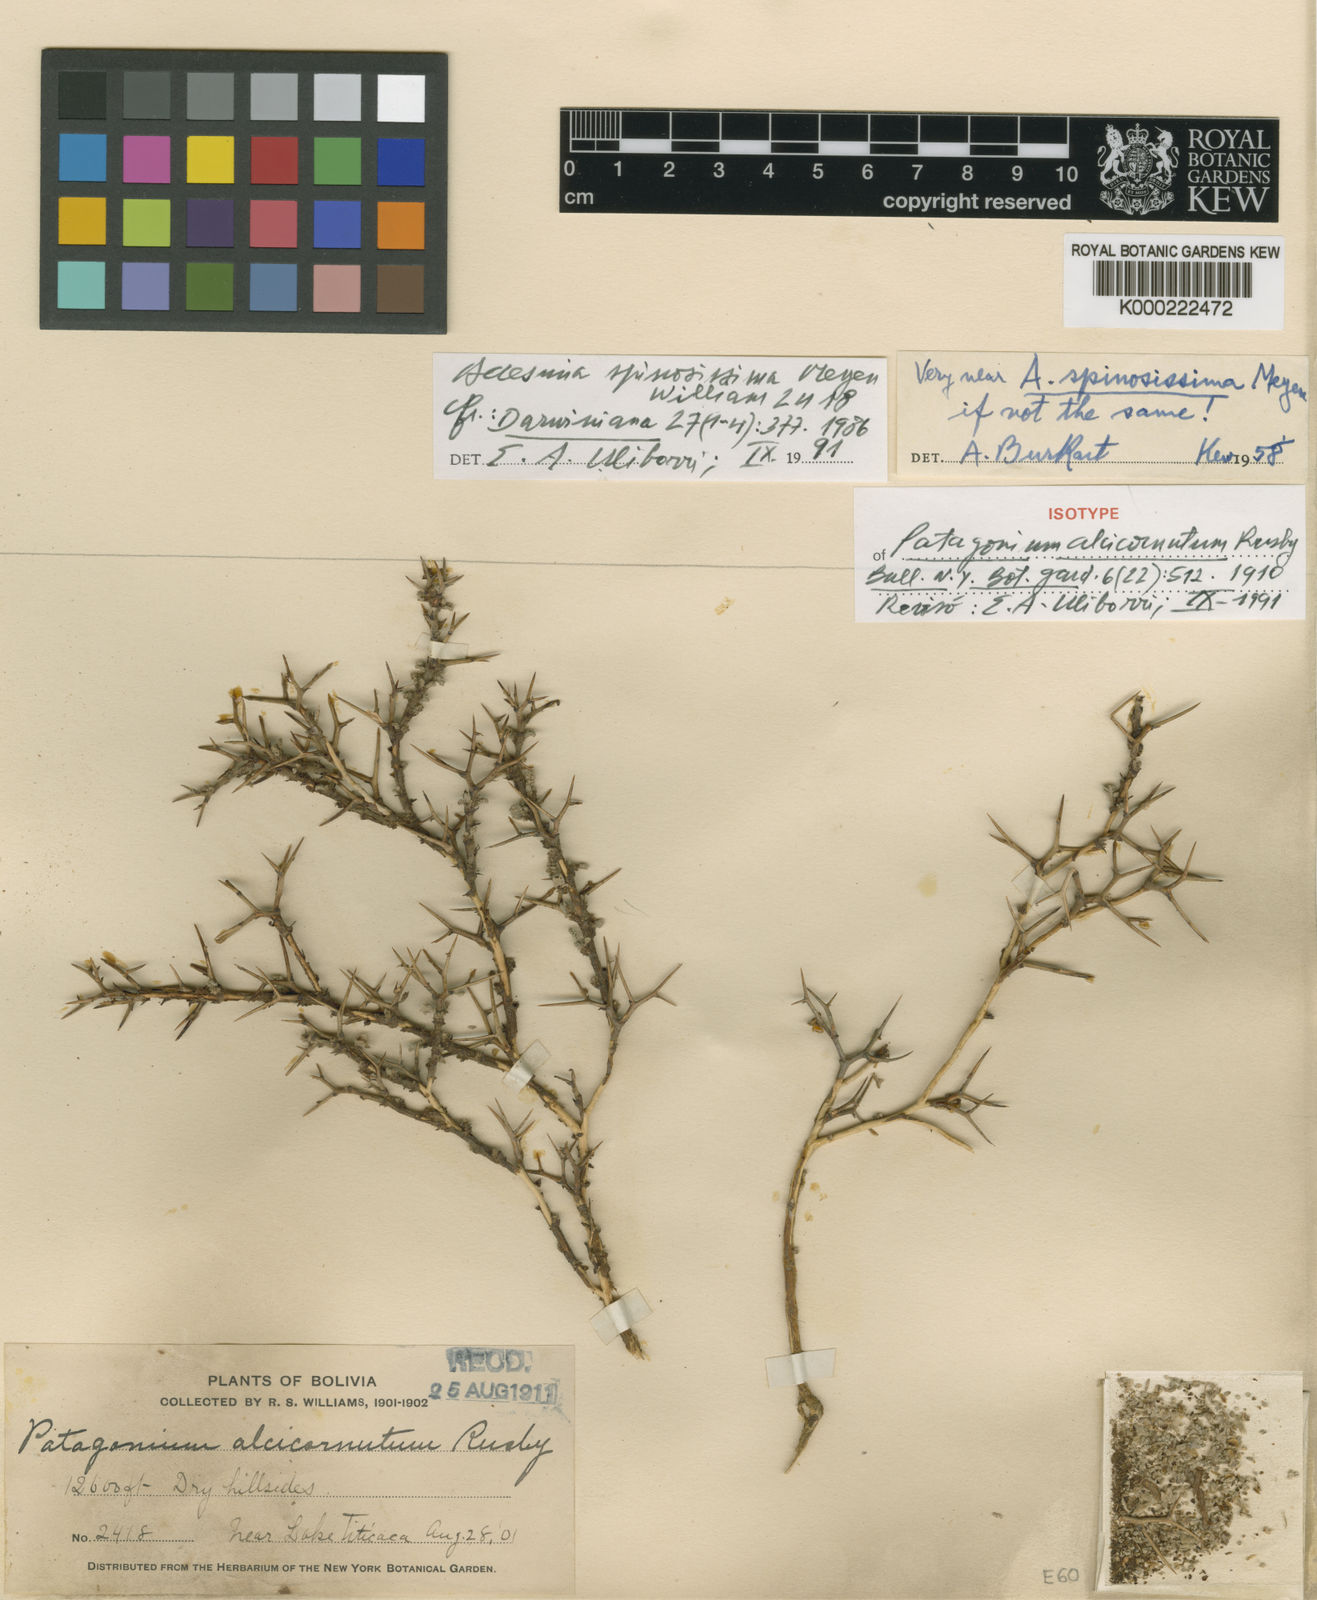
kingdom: Plantae
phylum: Tracheophyta
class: Magnoliopsida
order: Fabales
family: Fabaceae
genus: Adesmia
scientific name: Adesmia
